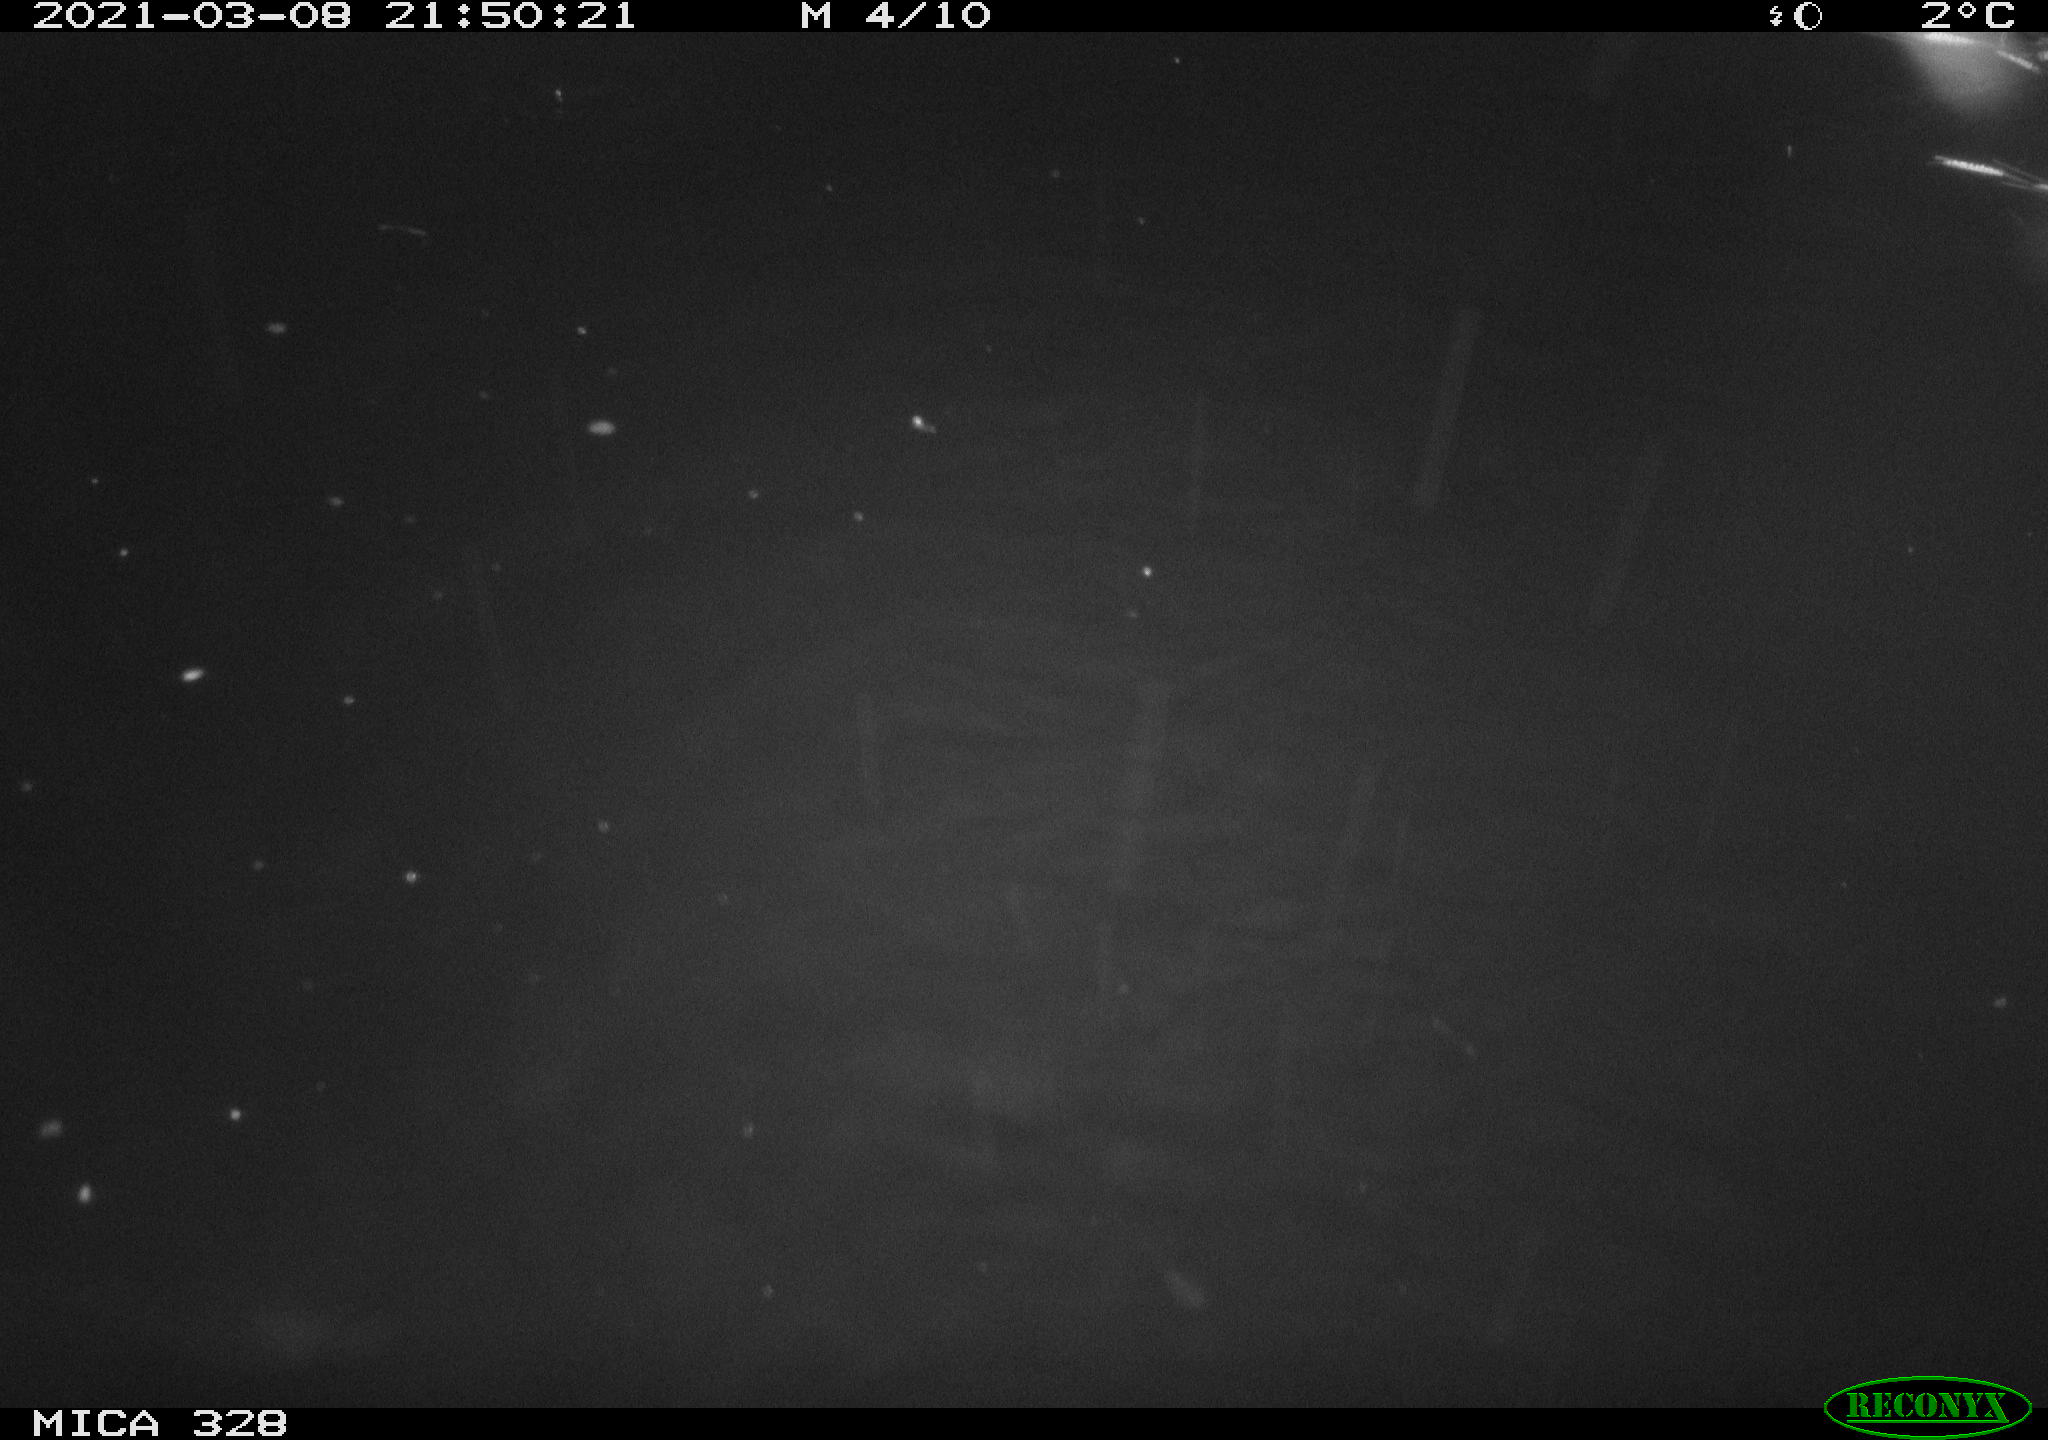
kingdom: Animalia
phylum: Chordata
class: Mammalia
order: Rodentia
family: Cricetidae
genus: Ondatra
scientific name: Ondatra zibethicus
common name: Muskrat
